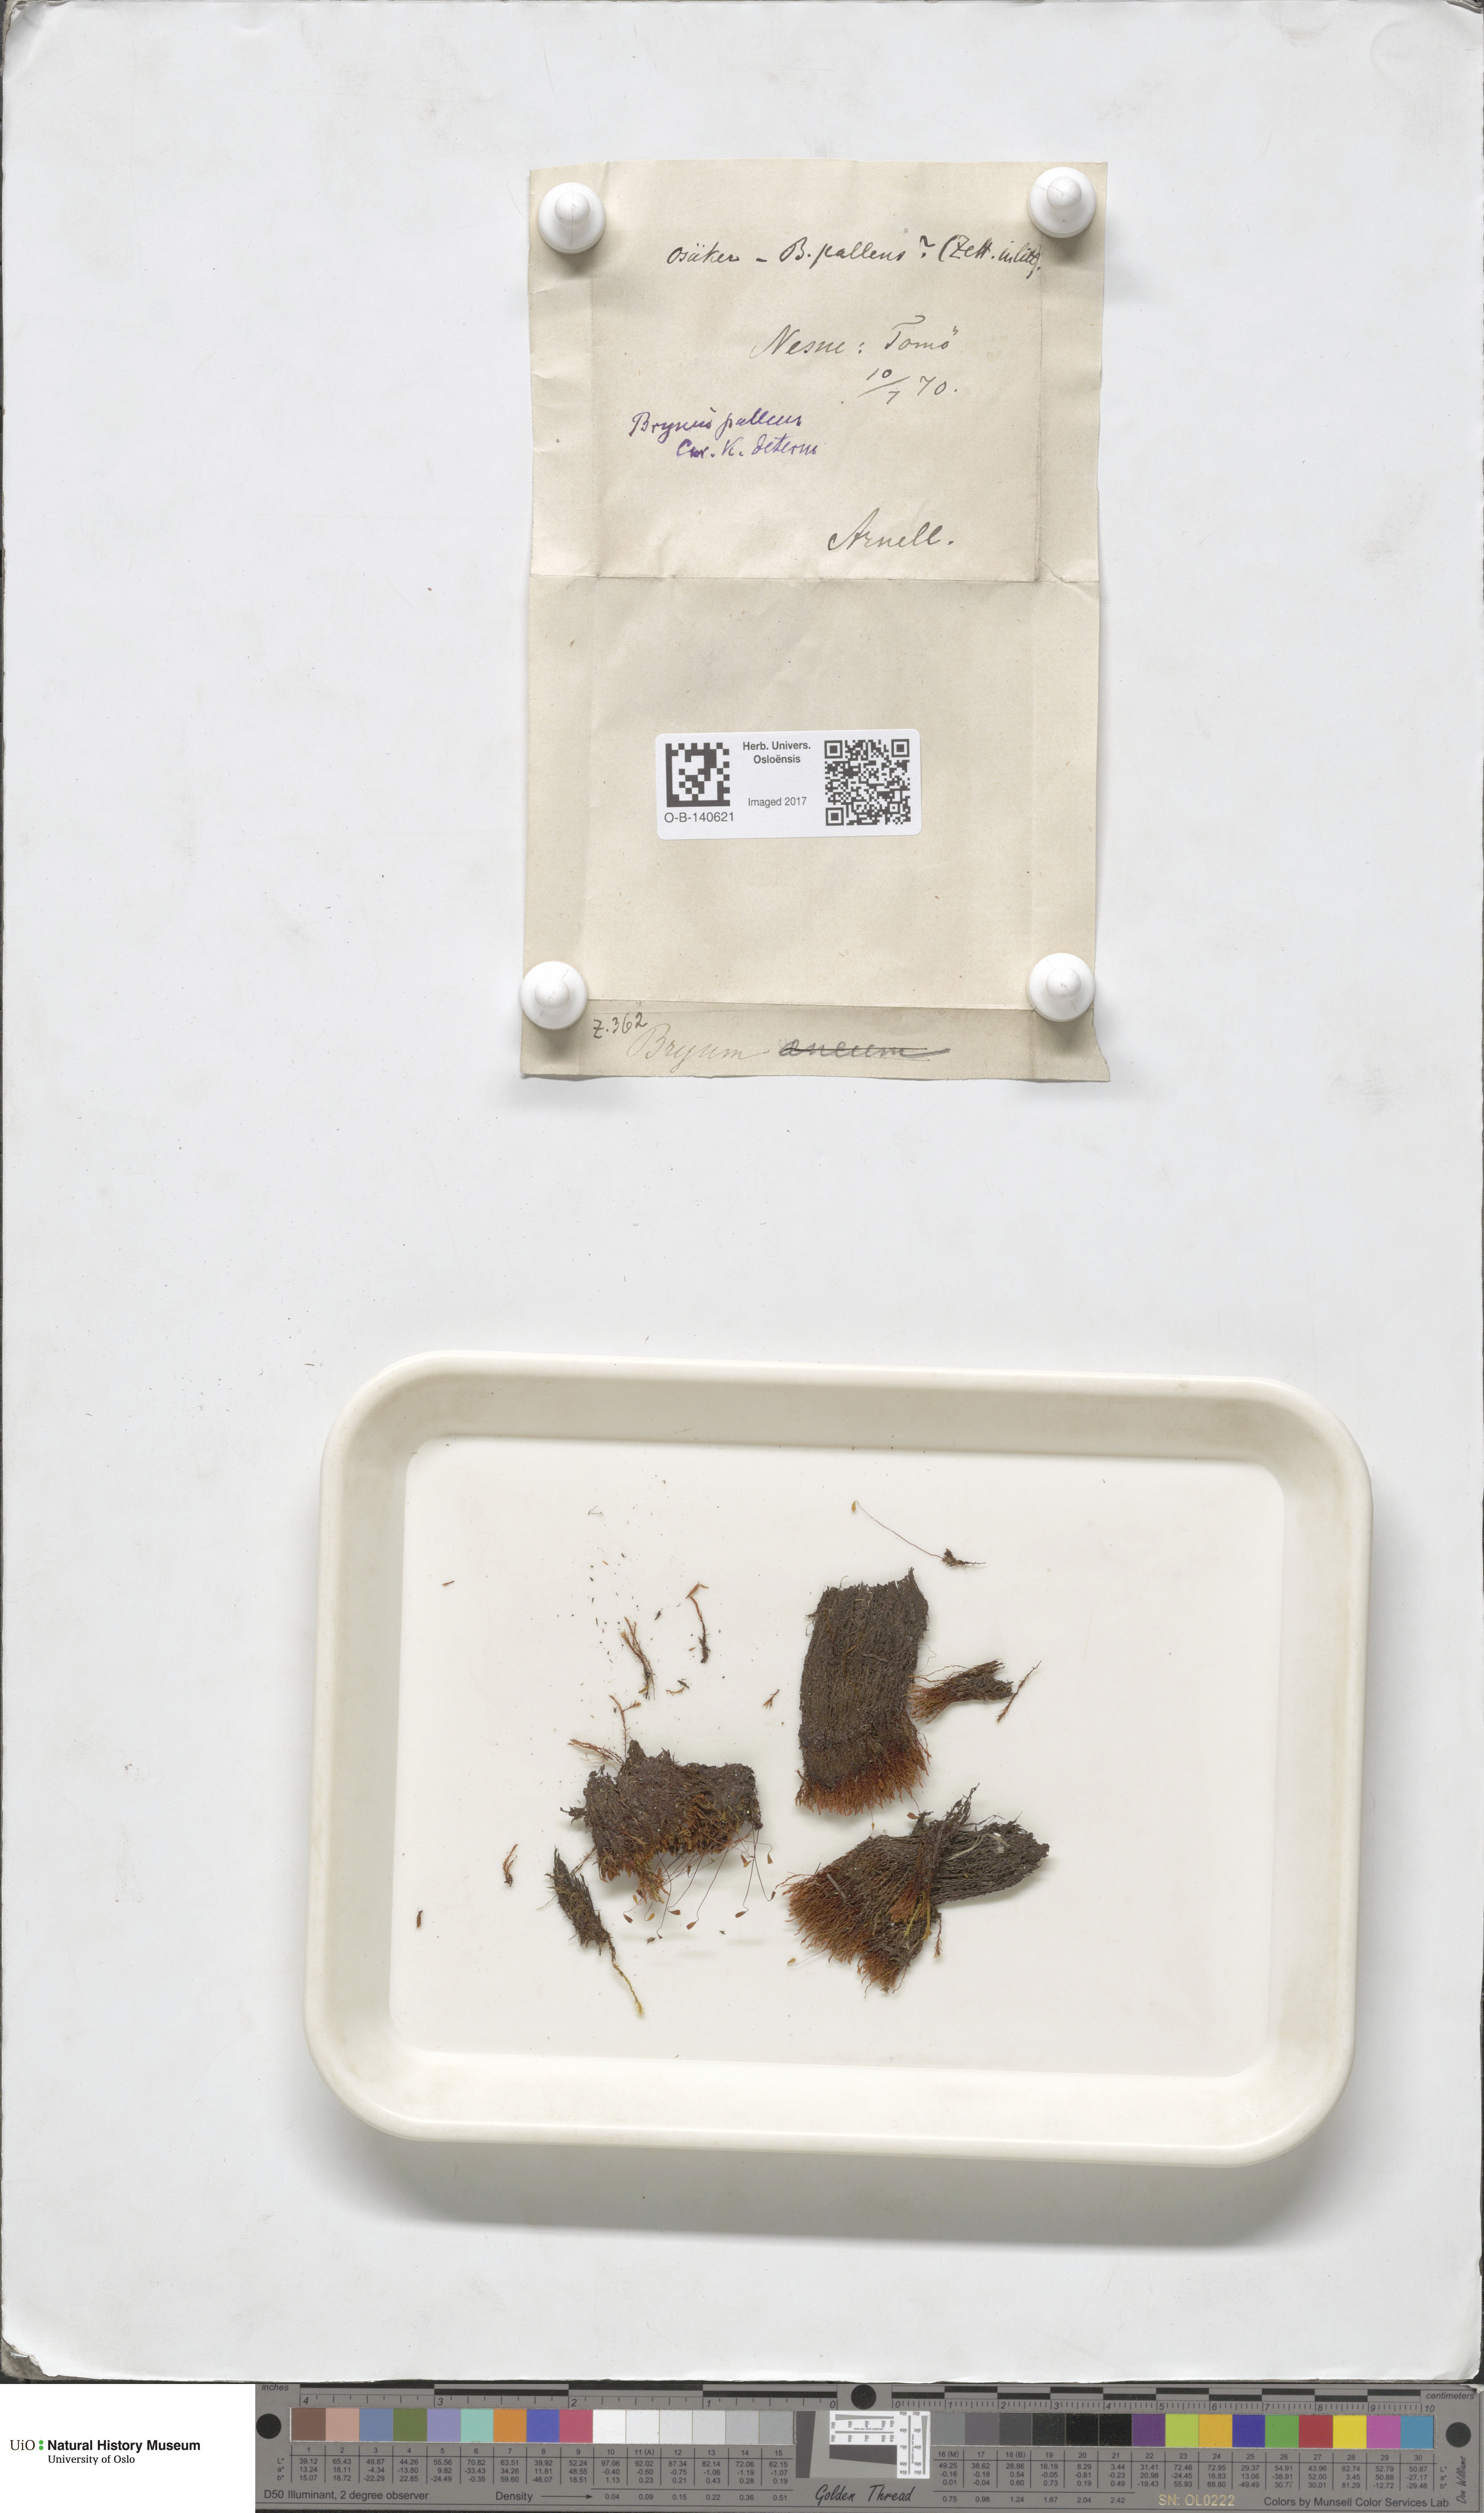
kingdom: Plantae
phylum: Bryophyta
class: Bryopsida
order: Bryales
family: Bryaceae
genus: Ptychostomum
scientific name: Ptychostomum pallens
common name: Pale thread-moss
